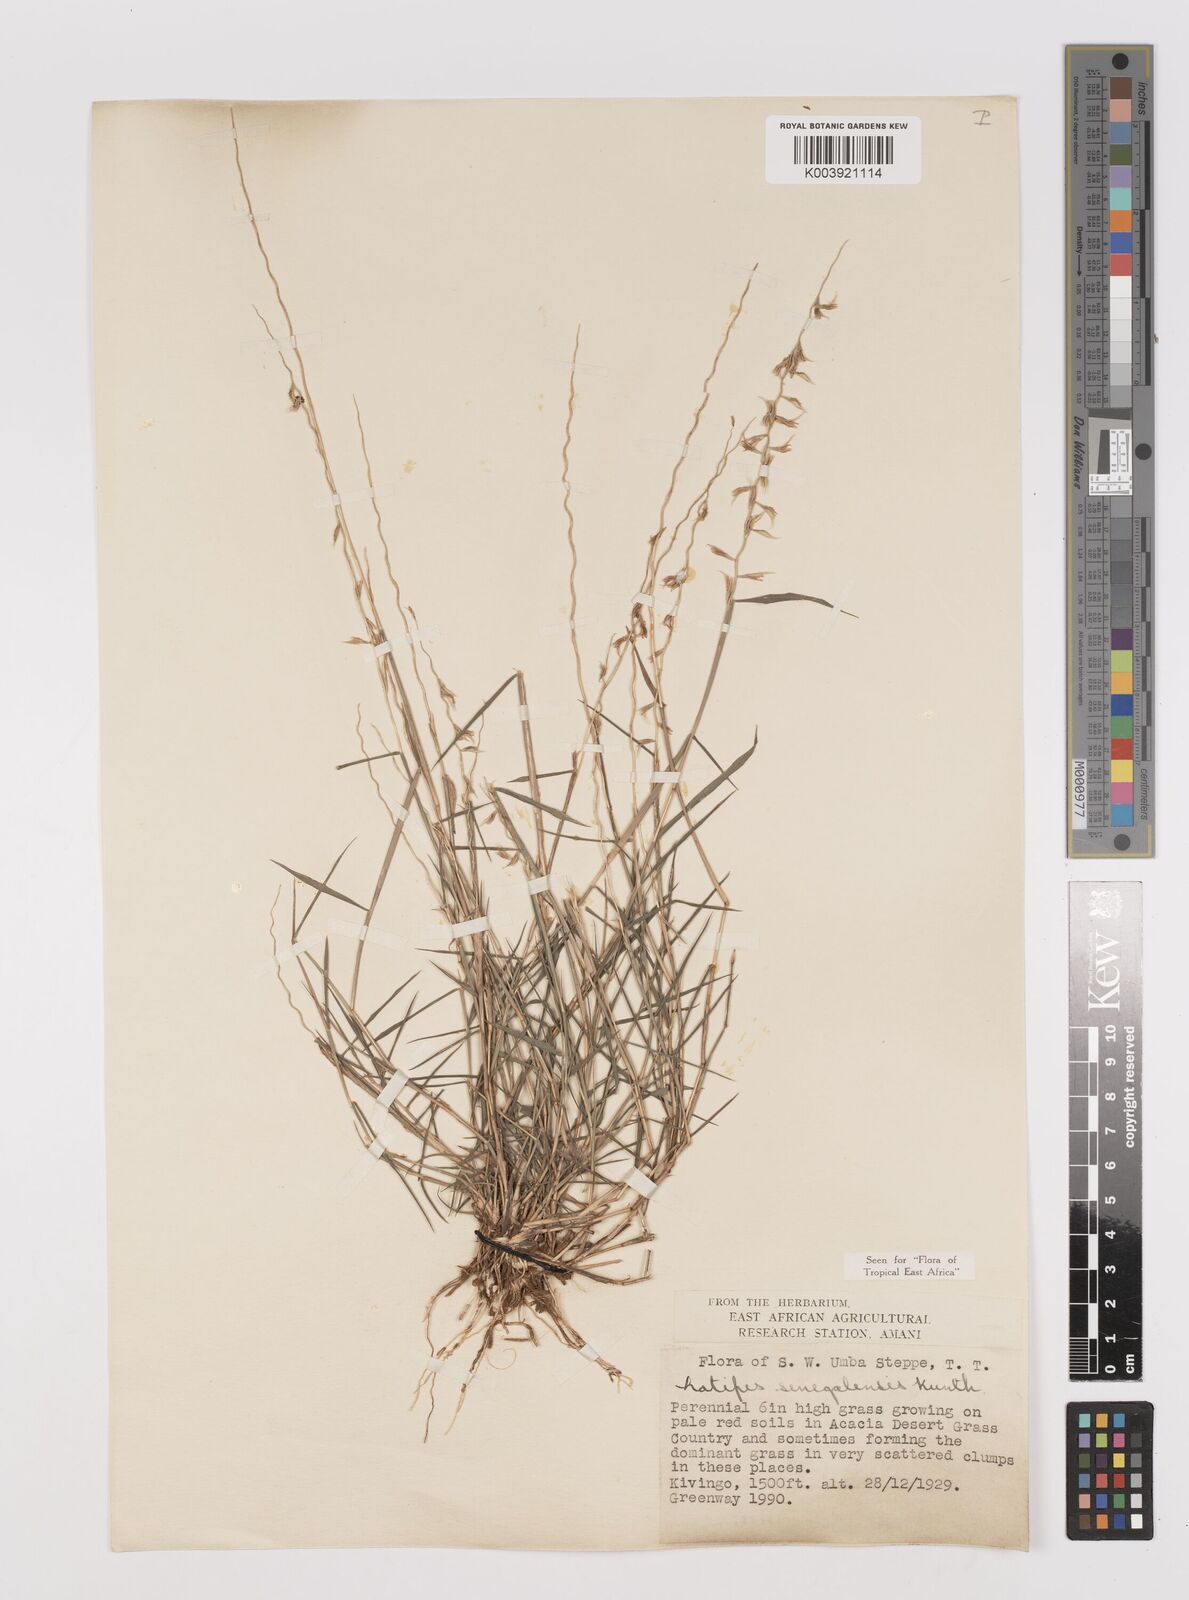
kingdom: Plantae
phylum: Tracheophyta
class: Liliopsida
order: Poales
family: Poaceae
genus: Leptothrium
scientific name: Leptothrium senegalense
